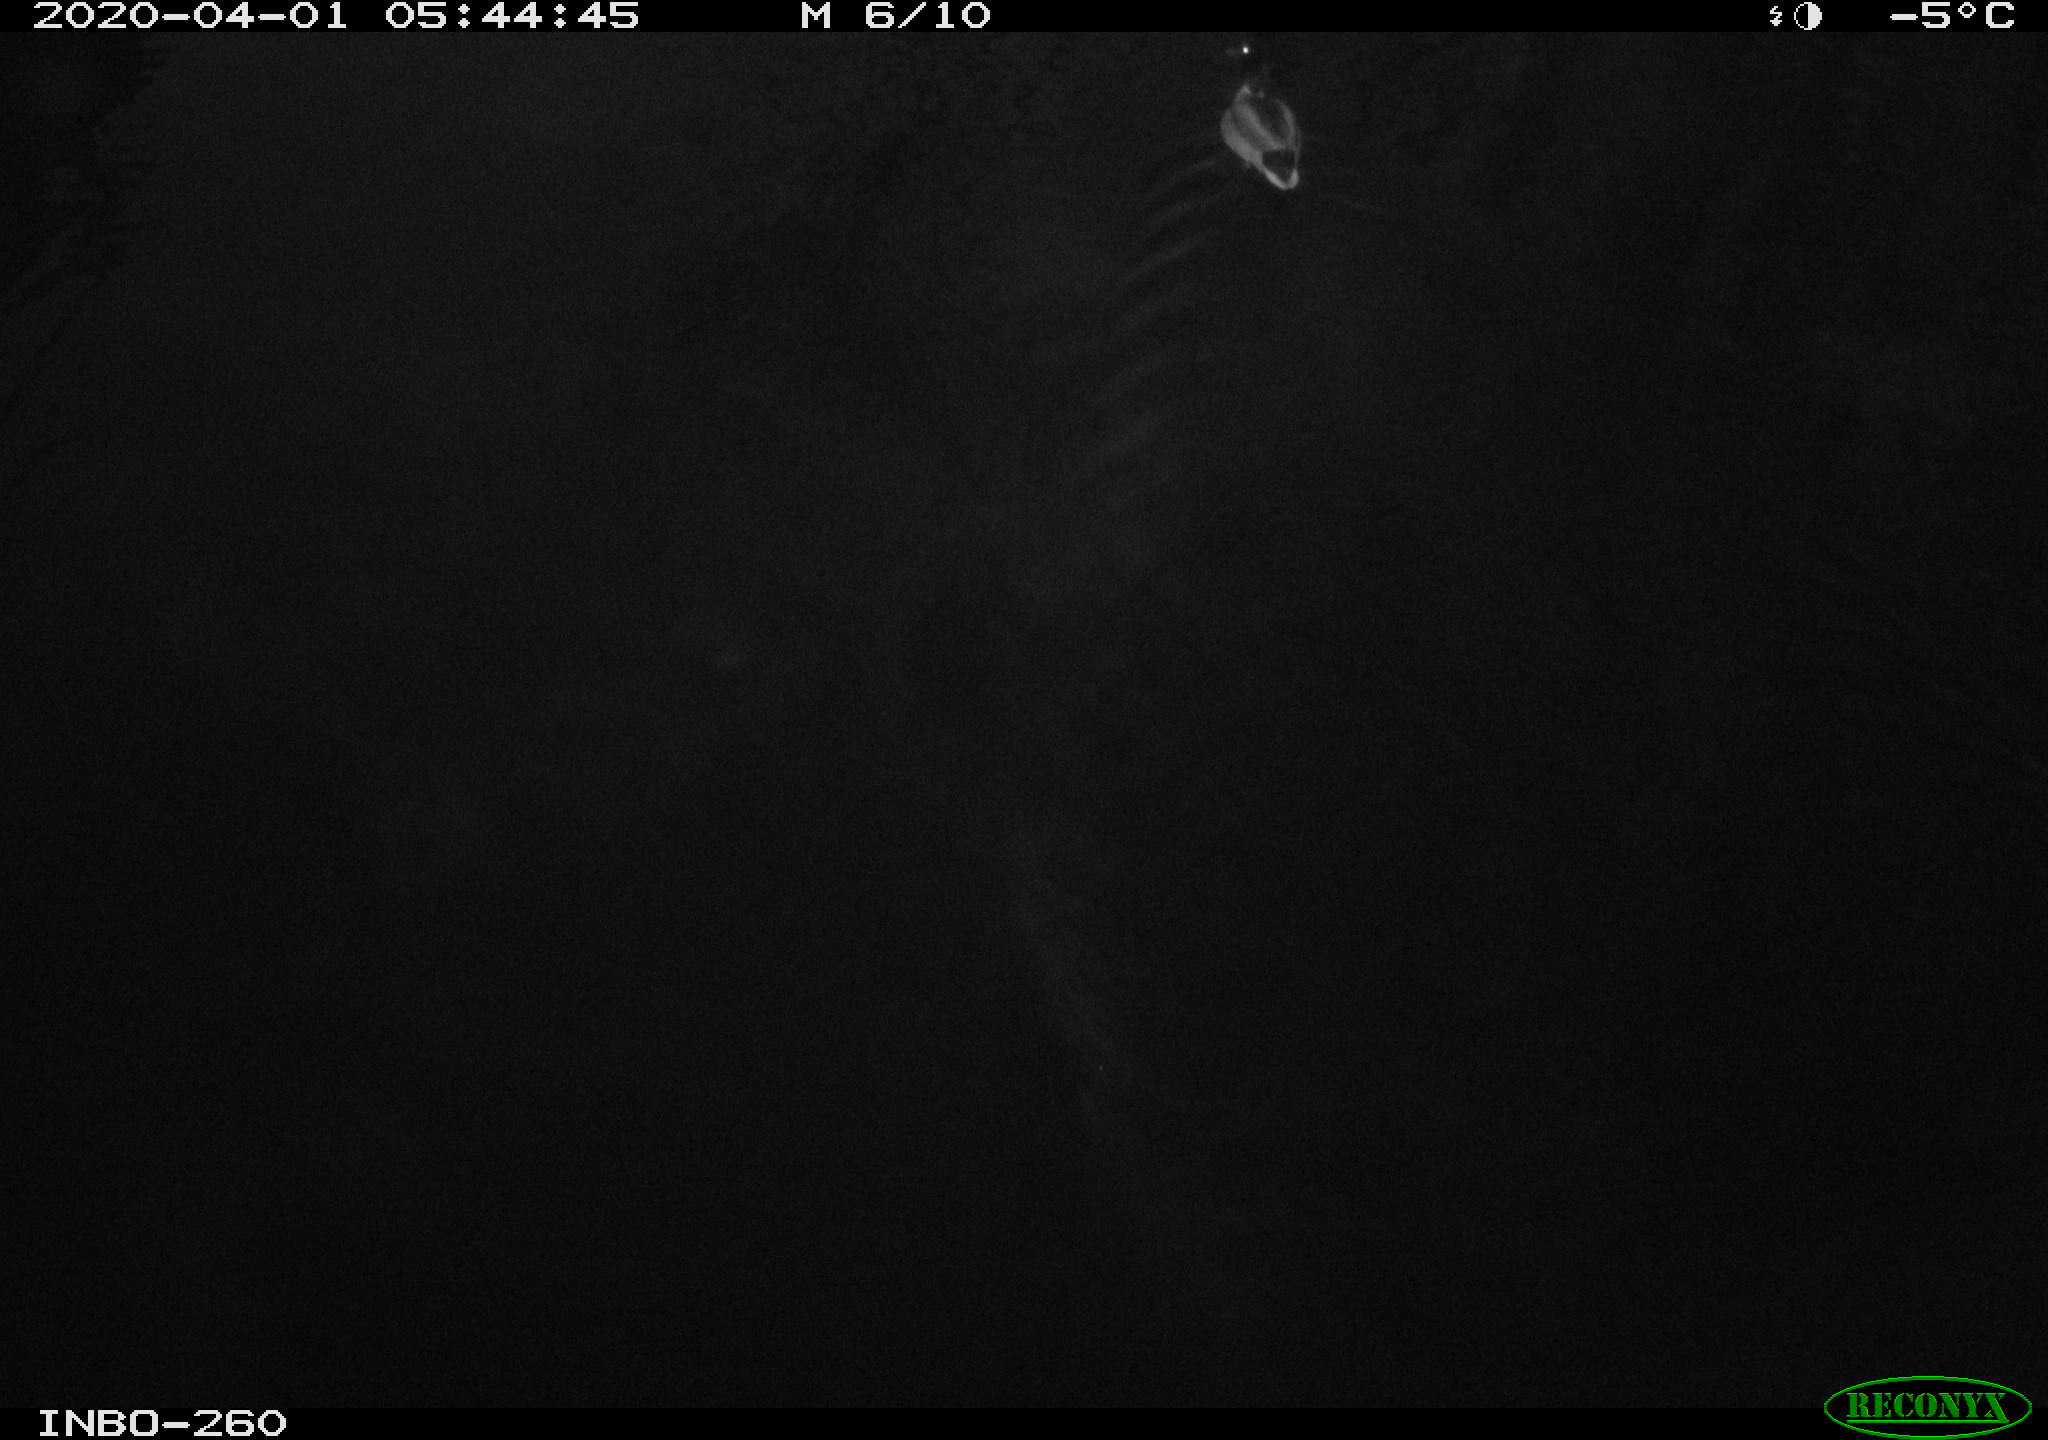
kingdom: Animalia
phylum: Chordata
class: Aves
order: Anseriformes
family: Anatidae
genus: Anas
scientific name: Anas platyrhynchos
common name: Mallard
